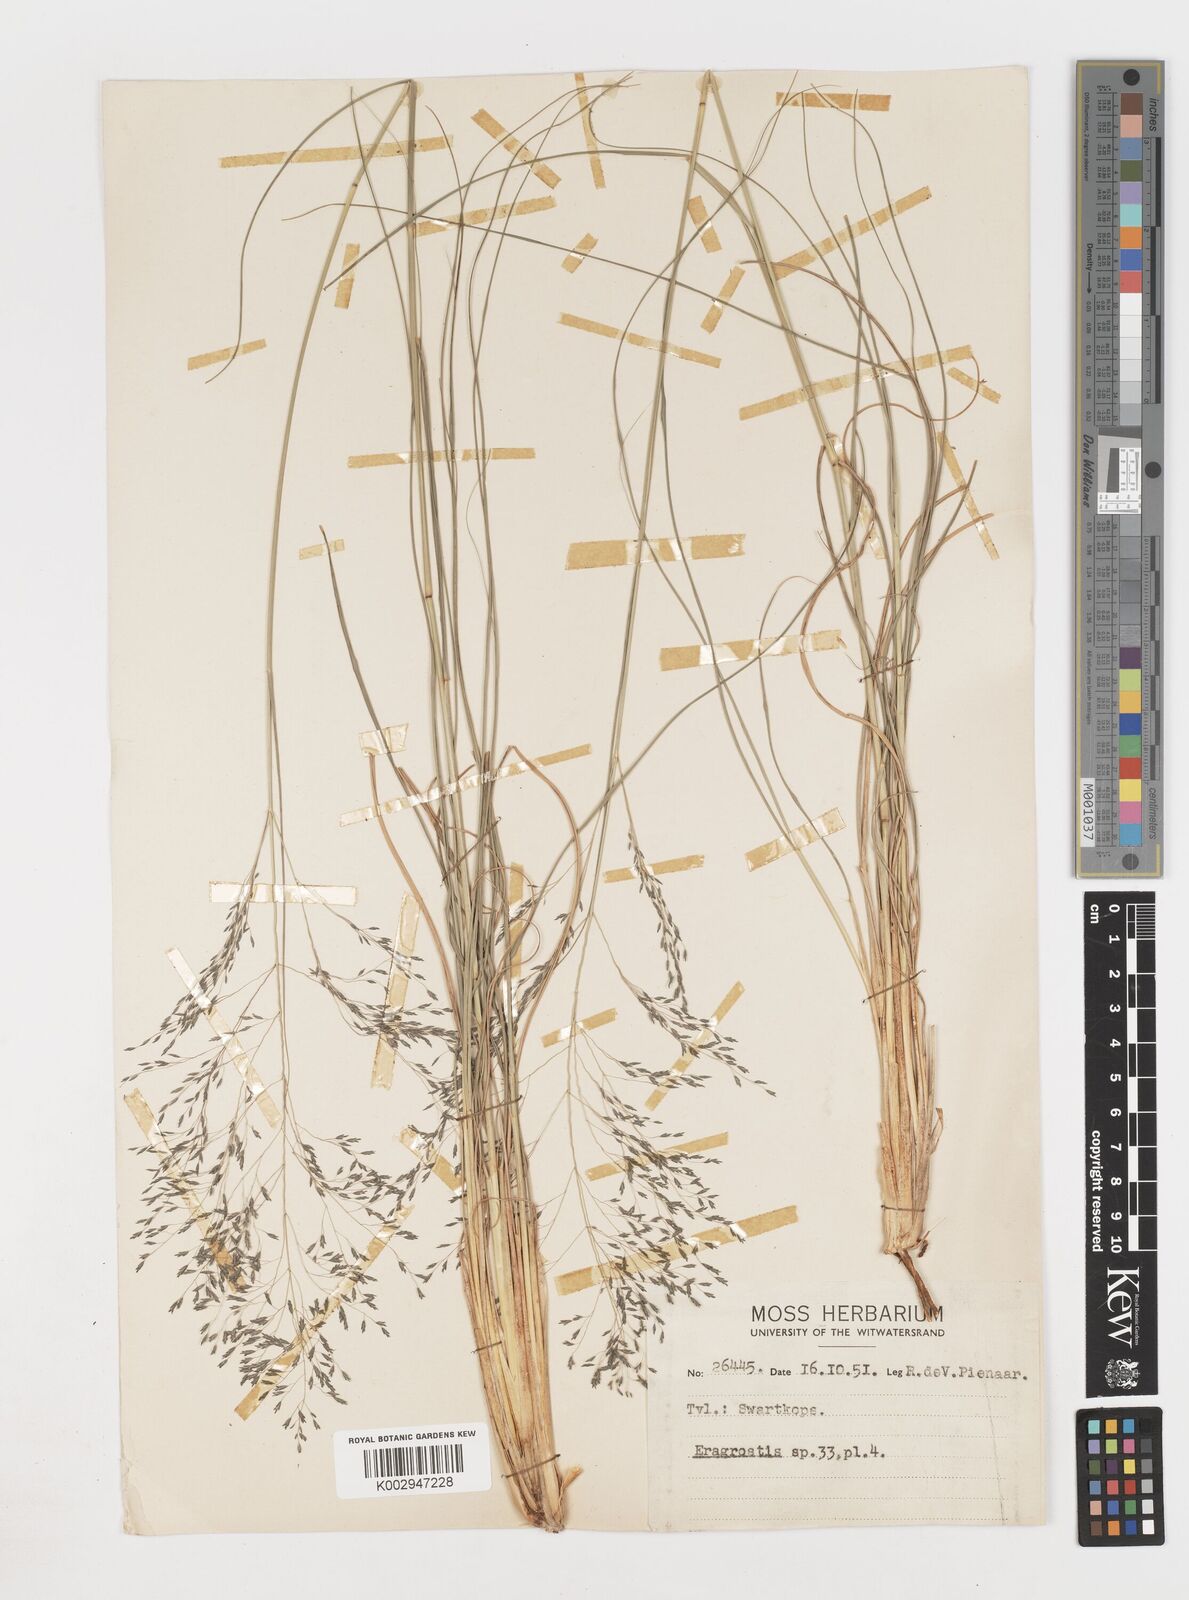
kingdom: Plantae
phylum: Tracheophyta
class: Liliopsida
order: Poales
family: Poaceae
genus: Eragrostis
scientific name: Eragrostis
